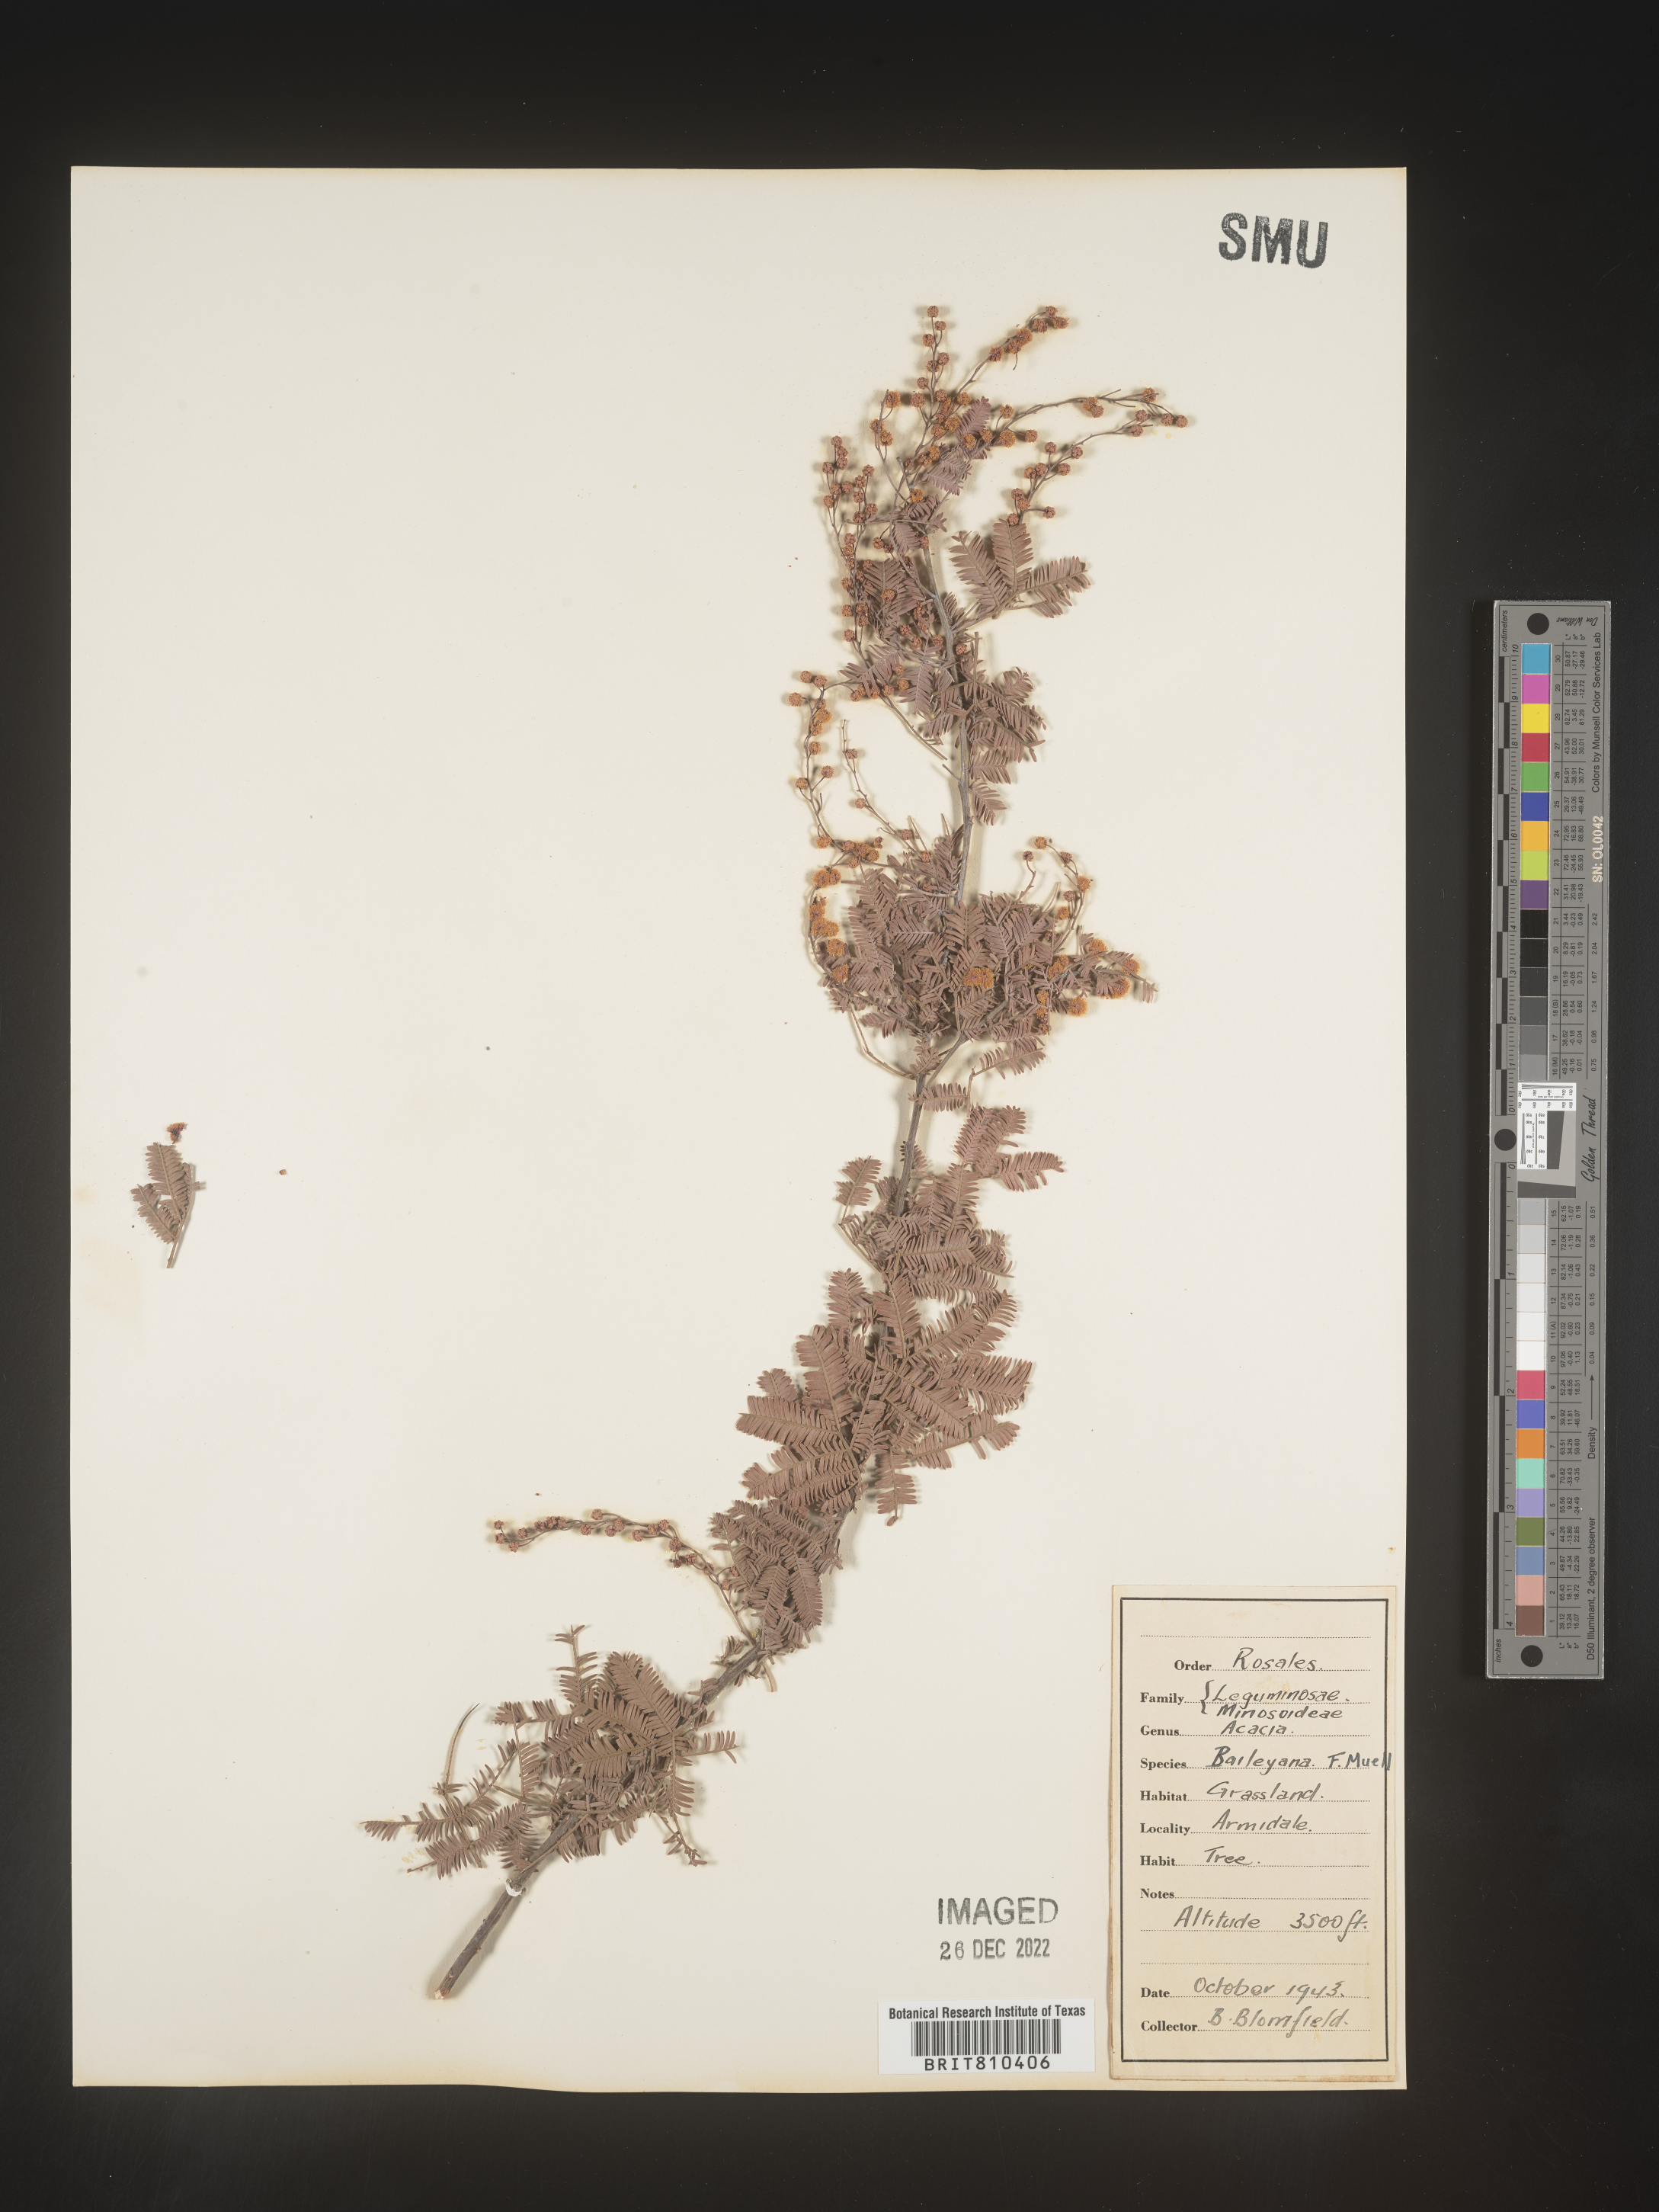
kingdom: Plantae
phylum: Tracheophyta
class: Magnoliopsida
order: Fabales
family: Fabaceae
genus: Acacia
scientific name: Acacia
